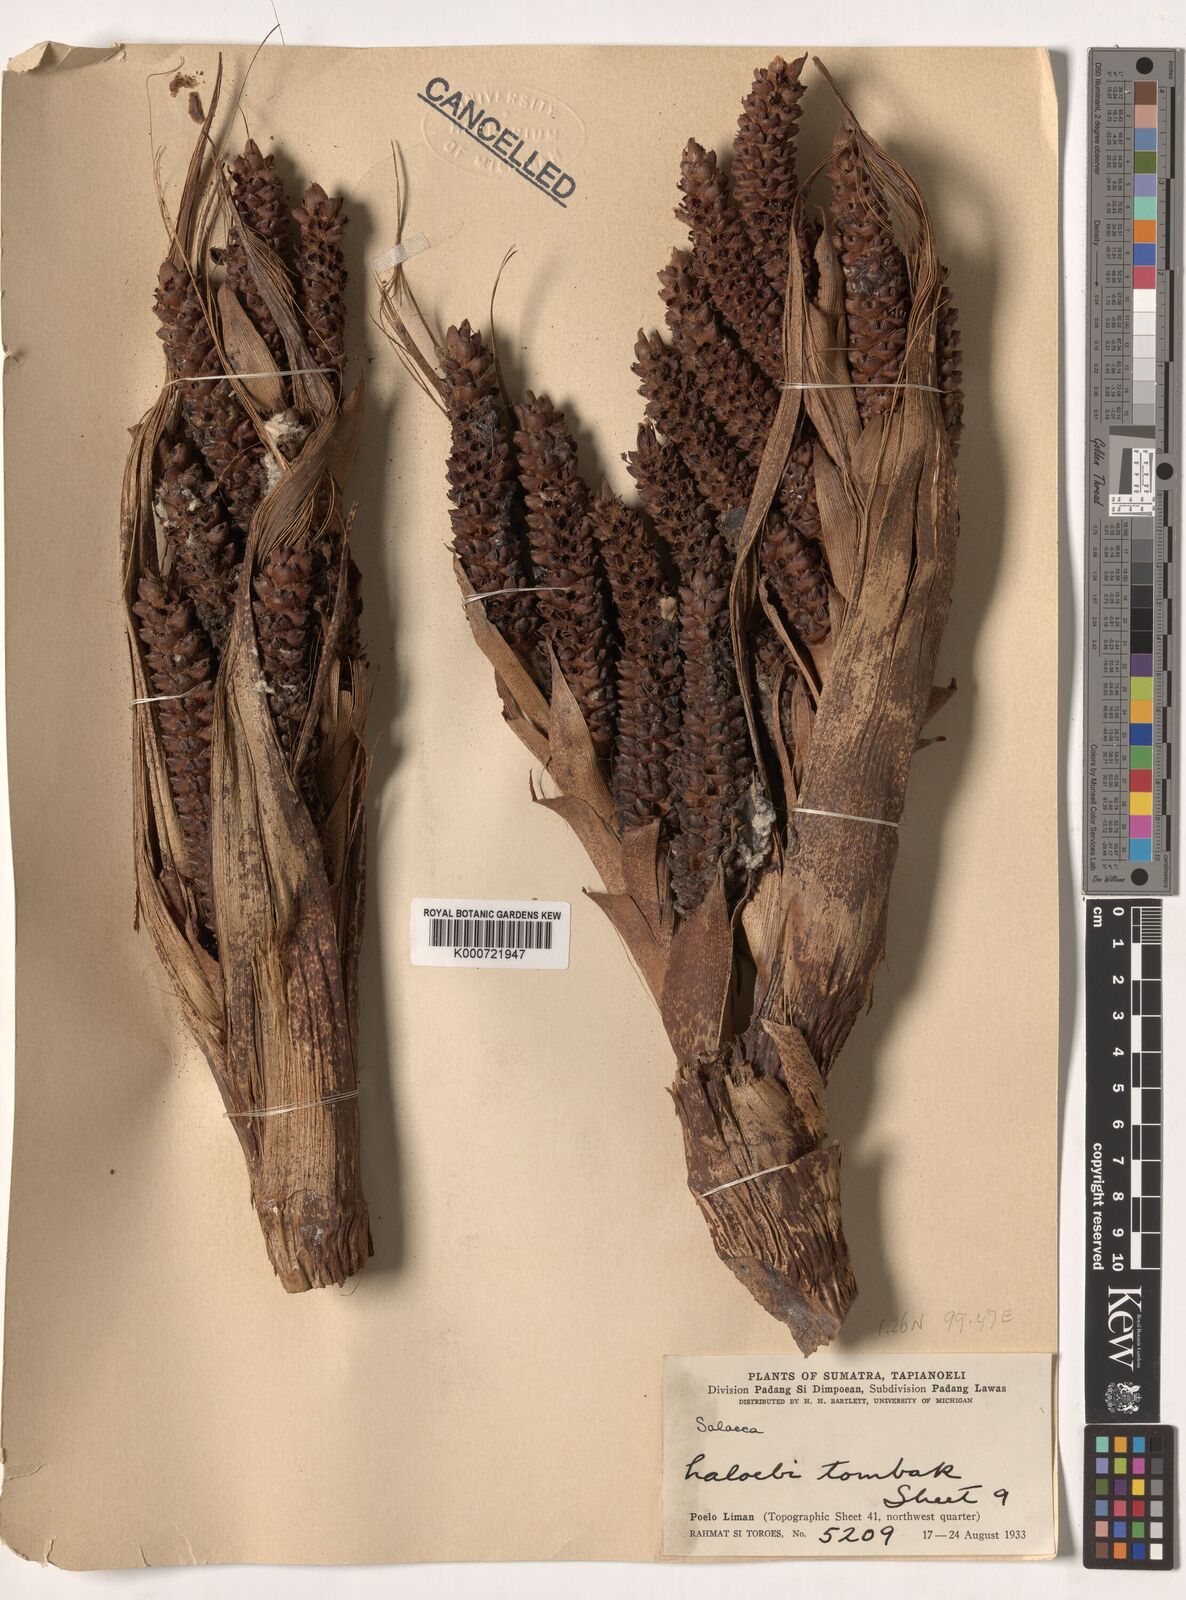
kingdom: Plantae
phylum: Tracheophyta
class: Liliopsida
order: Arecales
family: Arecaceae
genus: Eleiodoxa
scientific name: Eleiodoxa conferta
